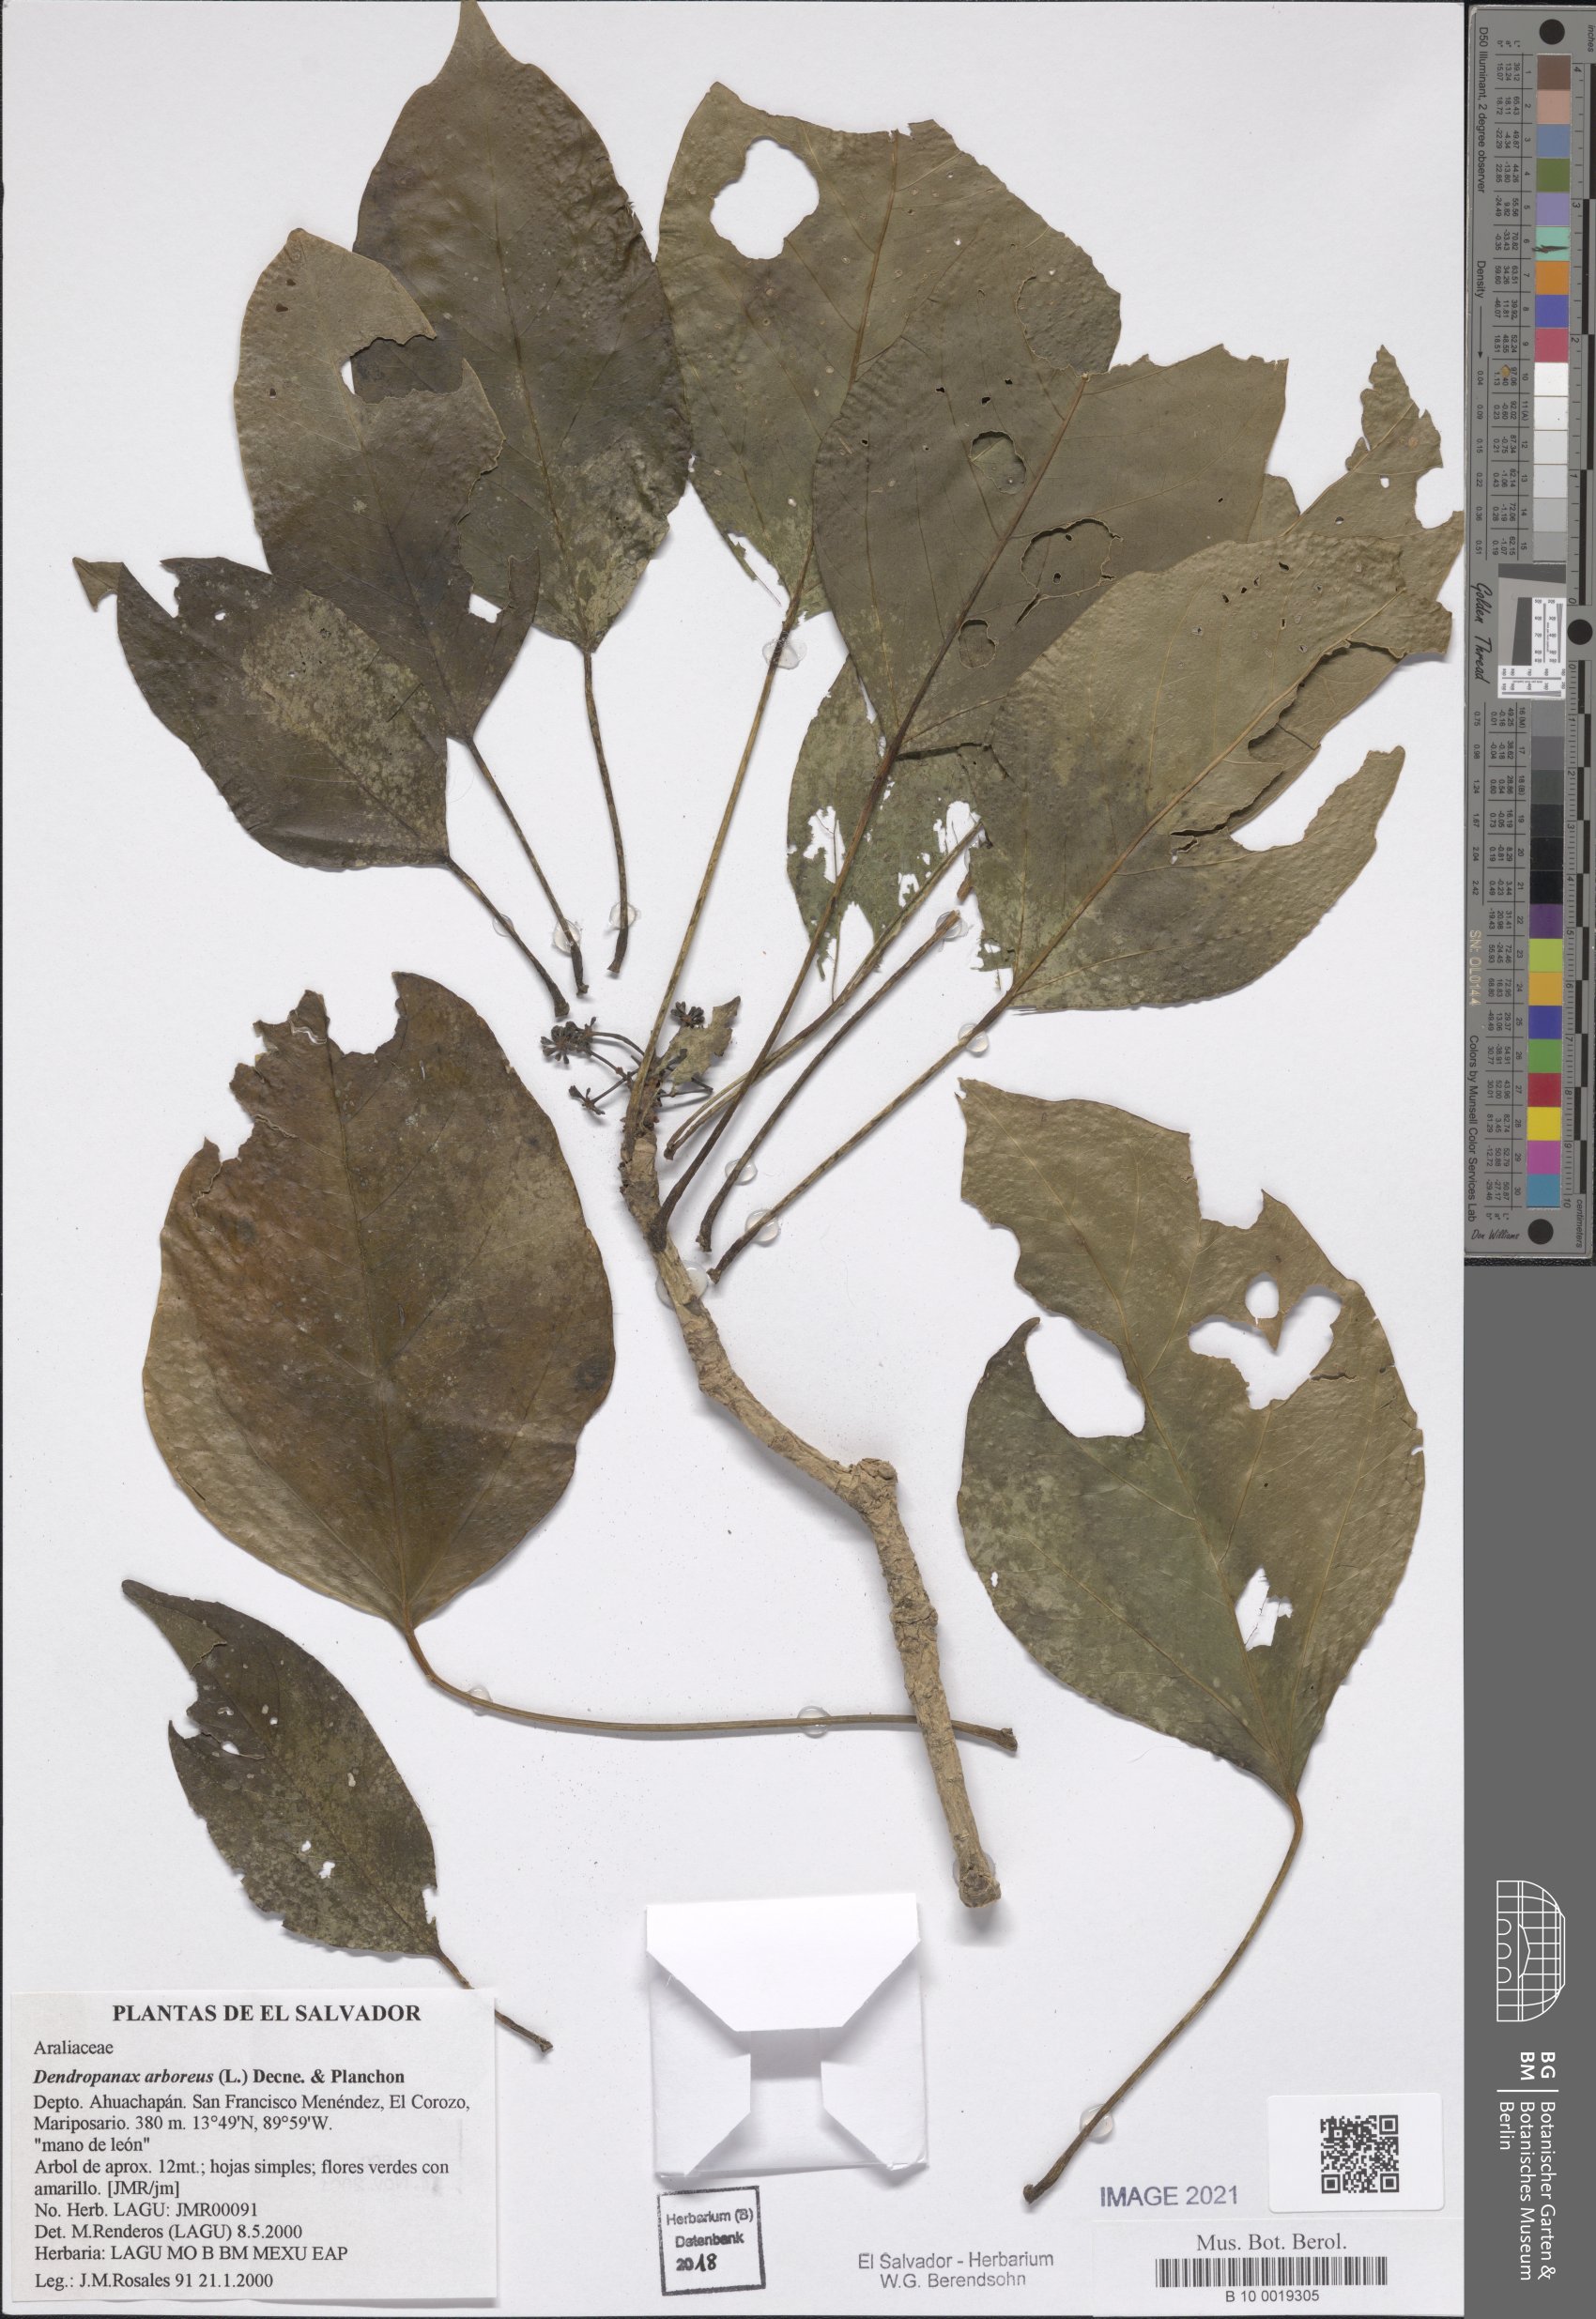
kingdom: Plantae
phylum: Tracheophyta
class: Magnoliopsida
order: Apiales
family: Araliaceae
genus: Dendropanax
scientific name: Dendropanax arboreus
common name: Potato-wood
